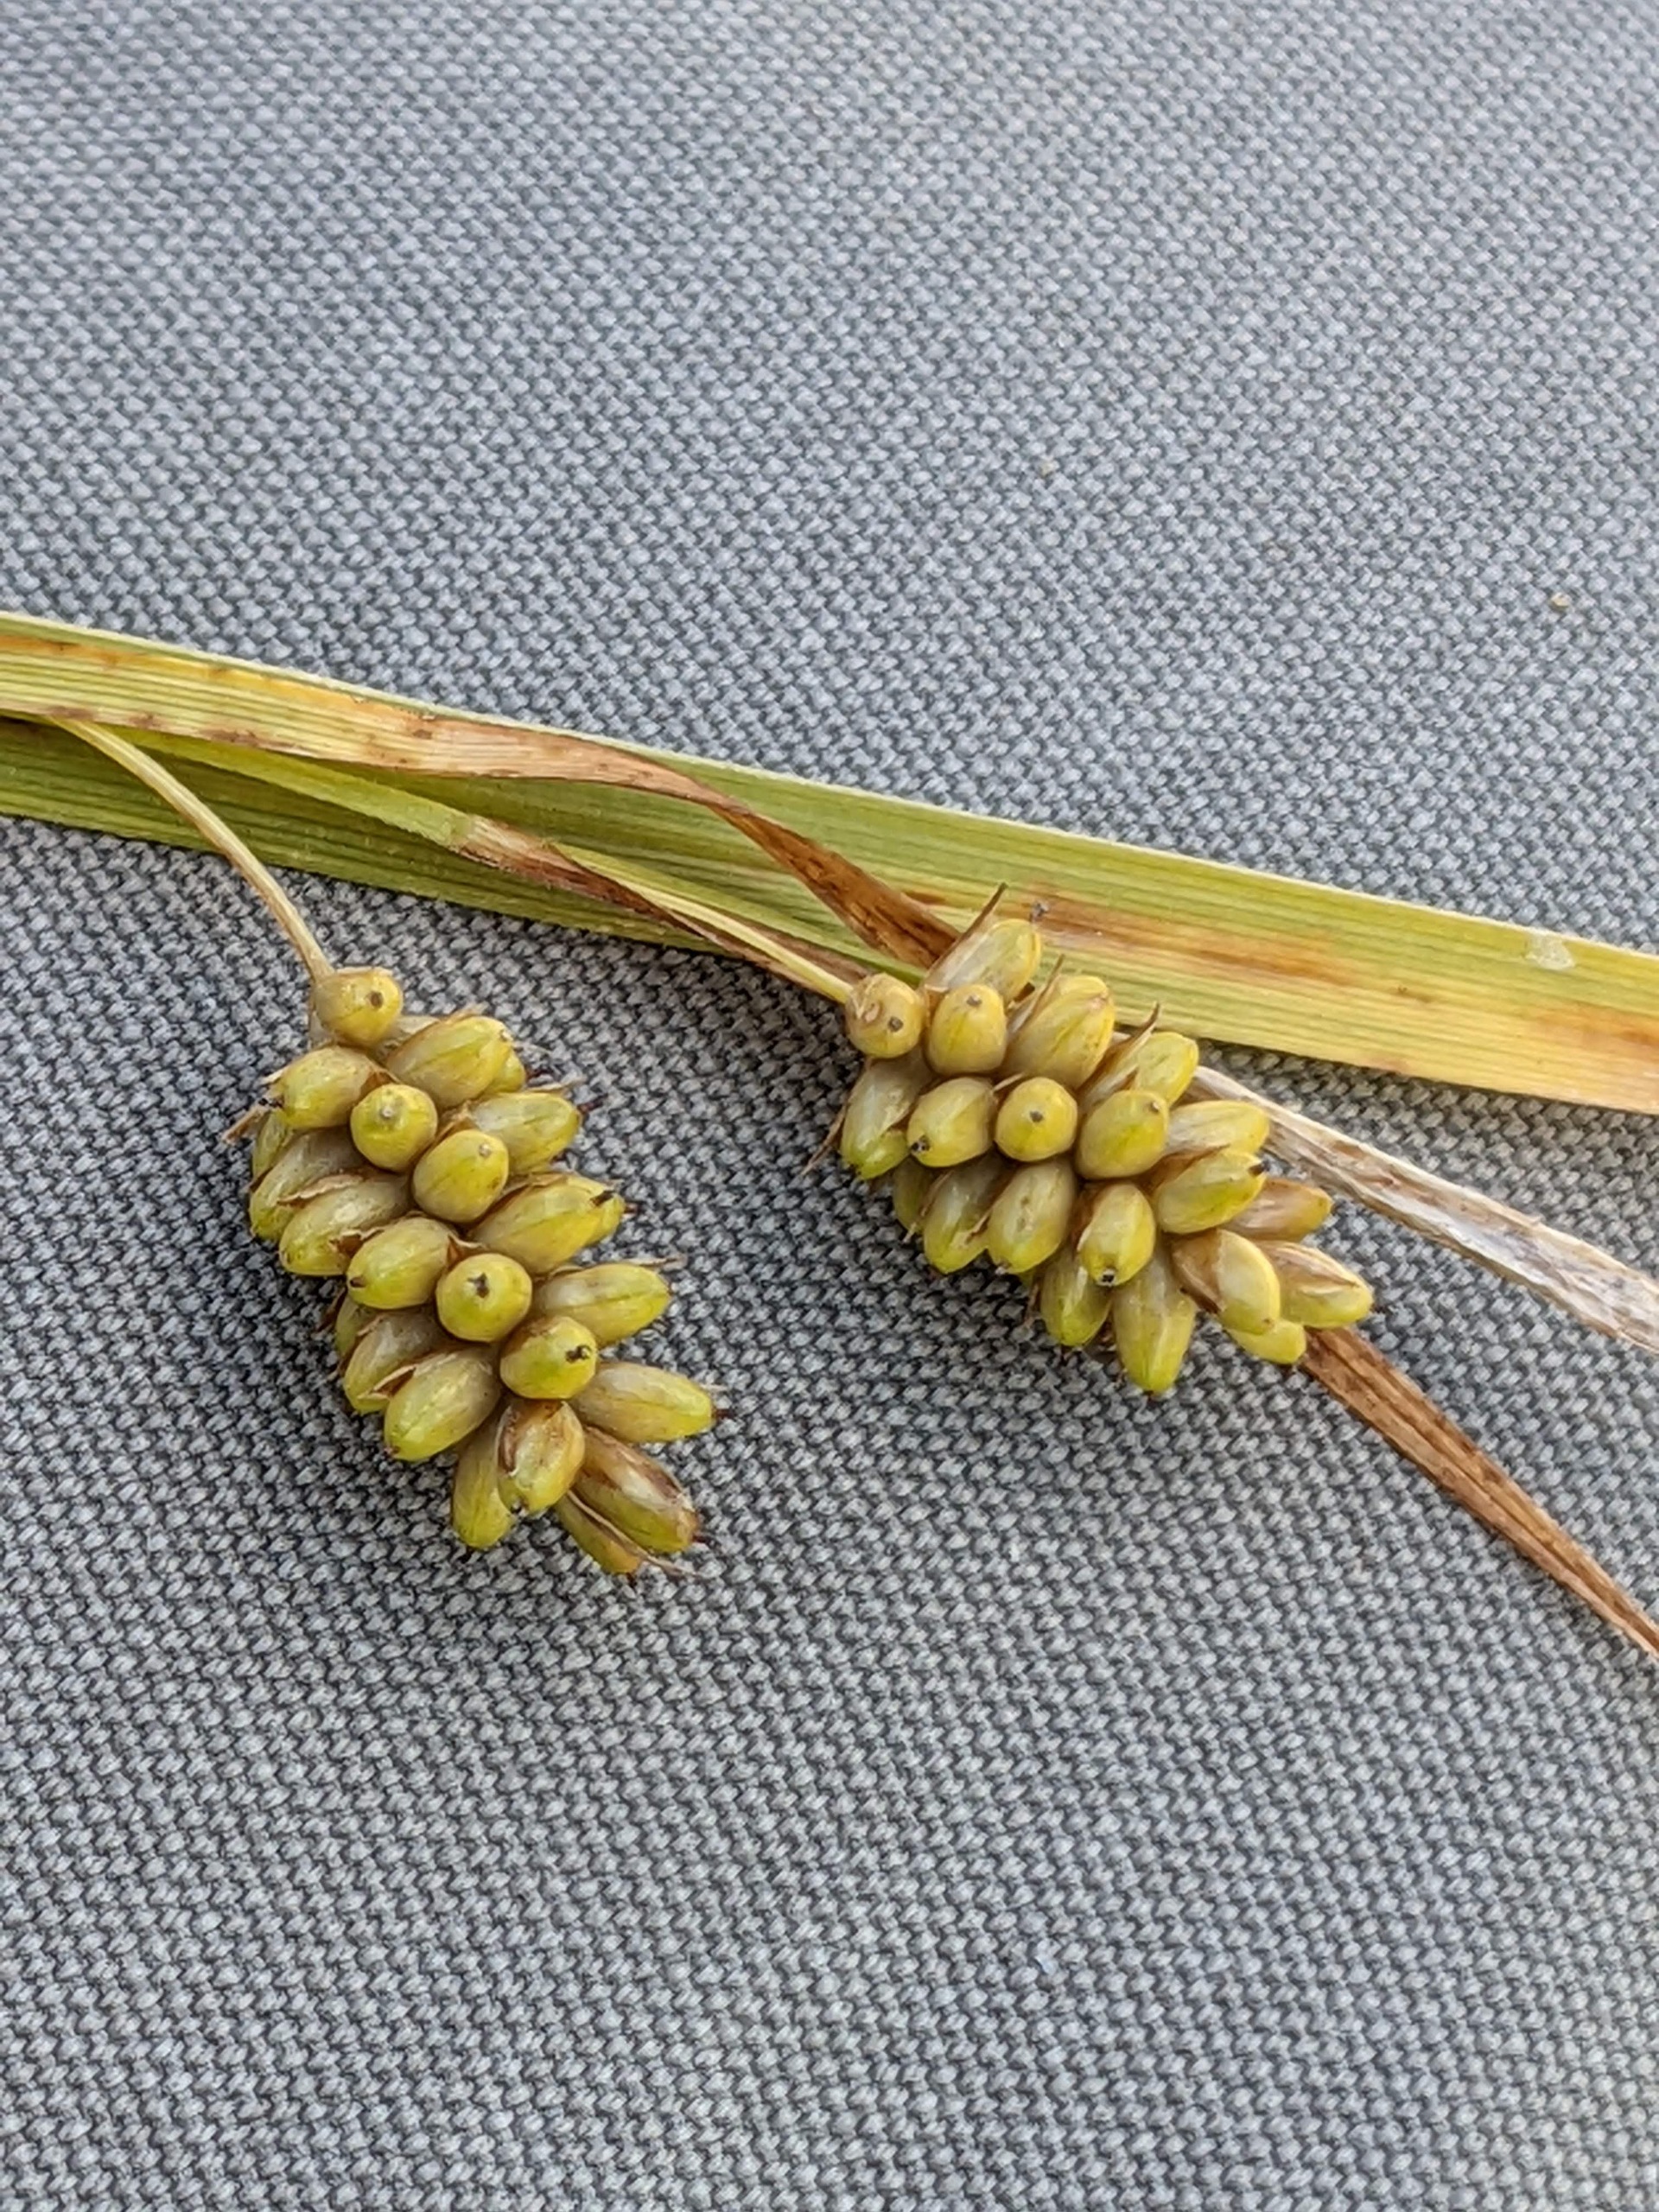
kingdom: Plantae
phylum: Tracheophyta
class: Liliopsida
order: Poales
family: Cyperaceae
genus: Carex
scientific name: Carex pallescens
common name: Bleg star
